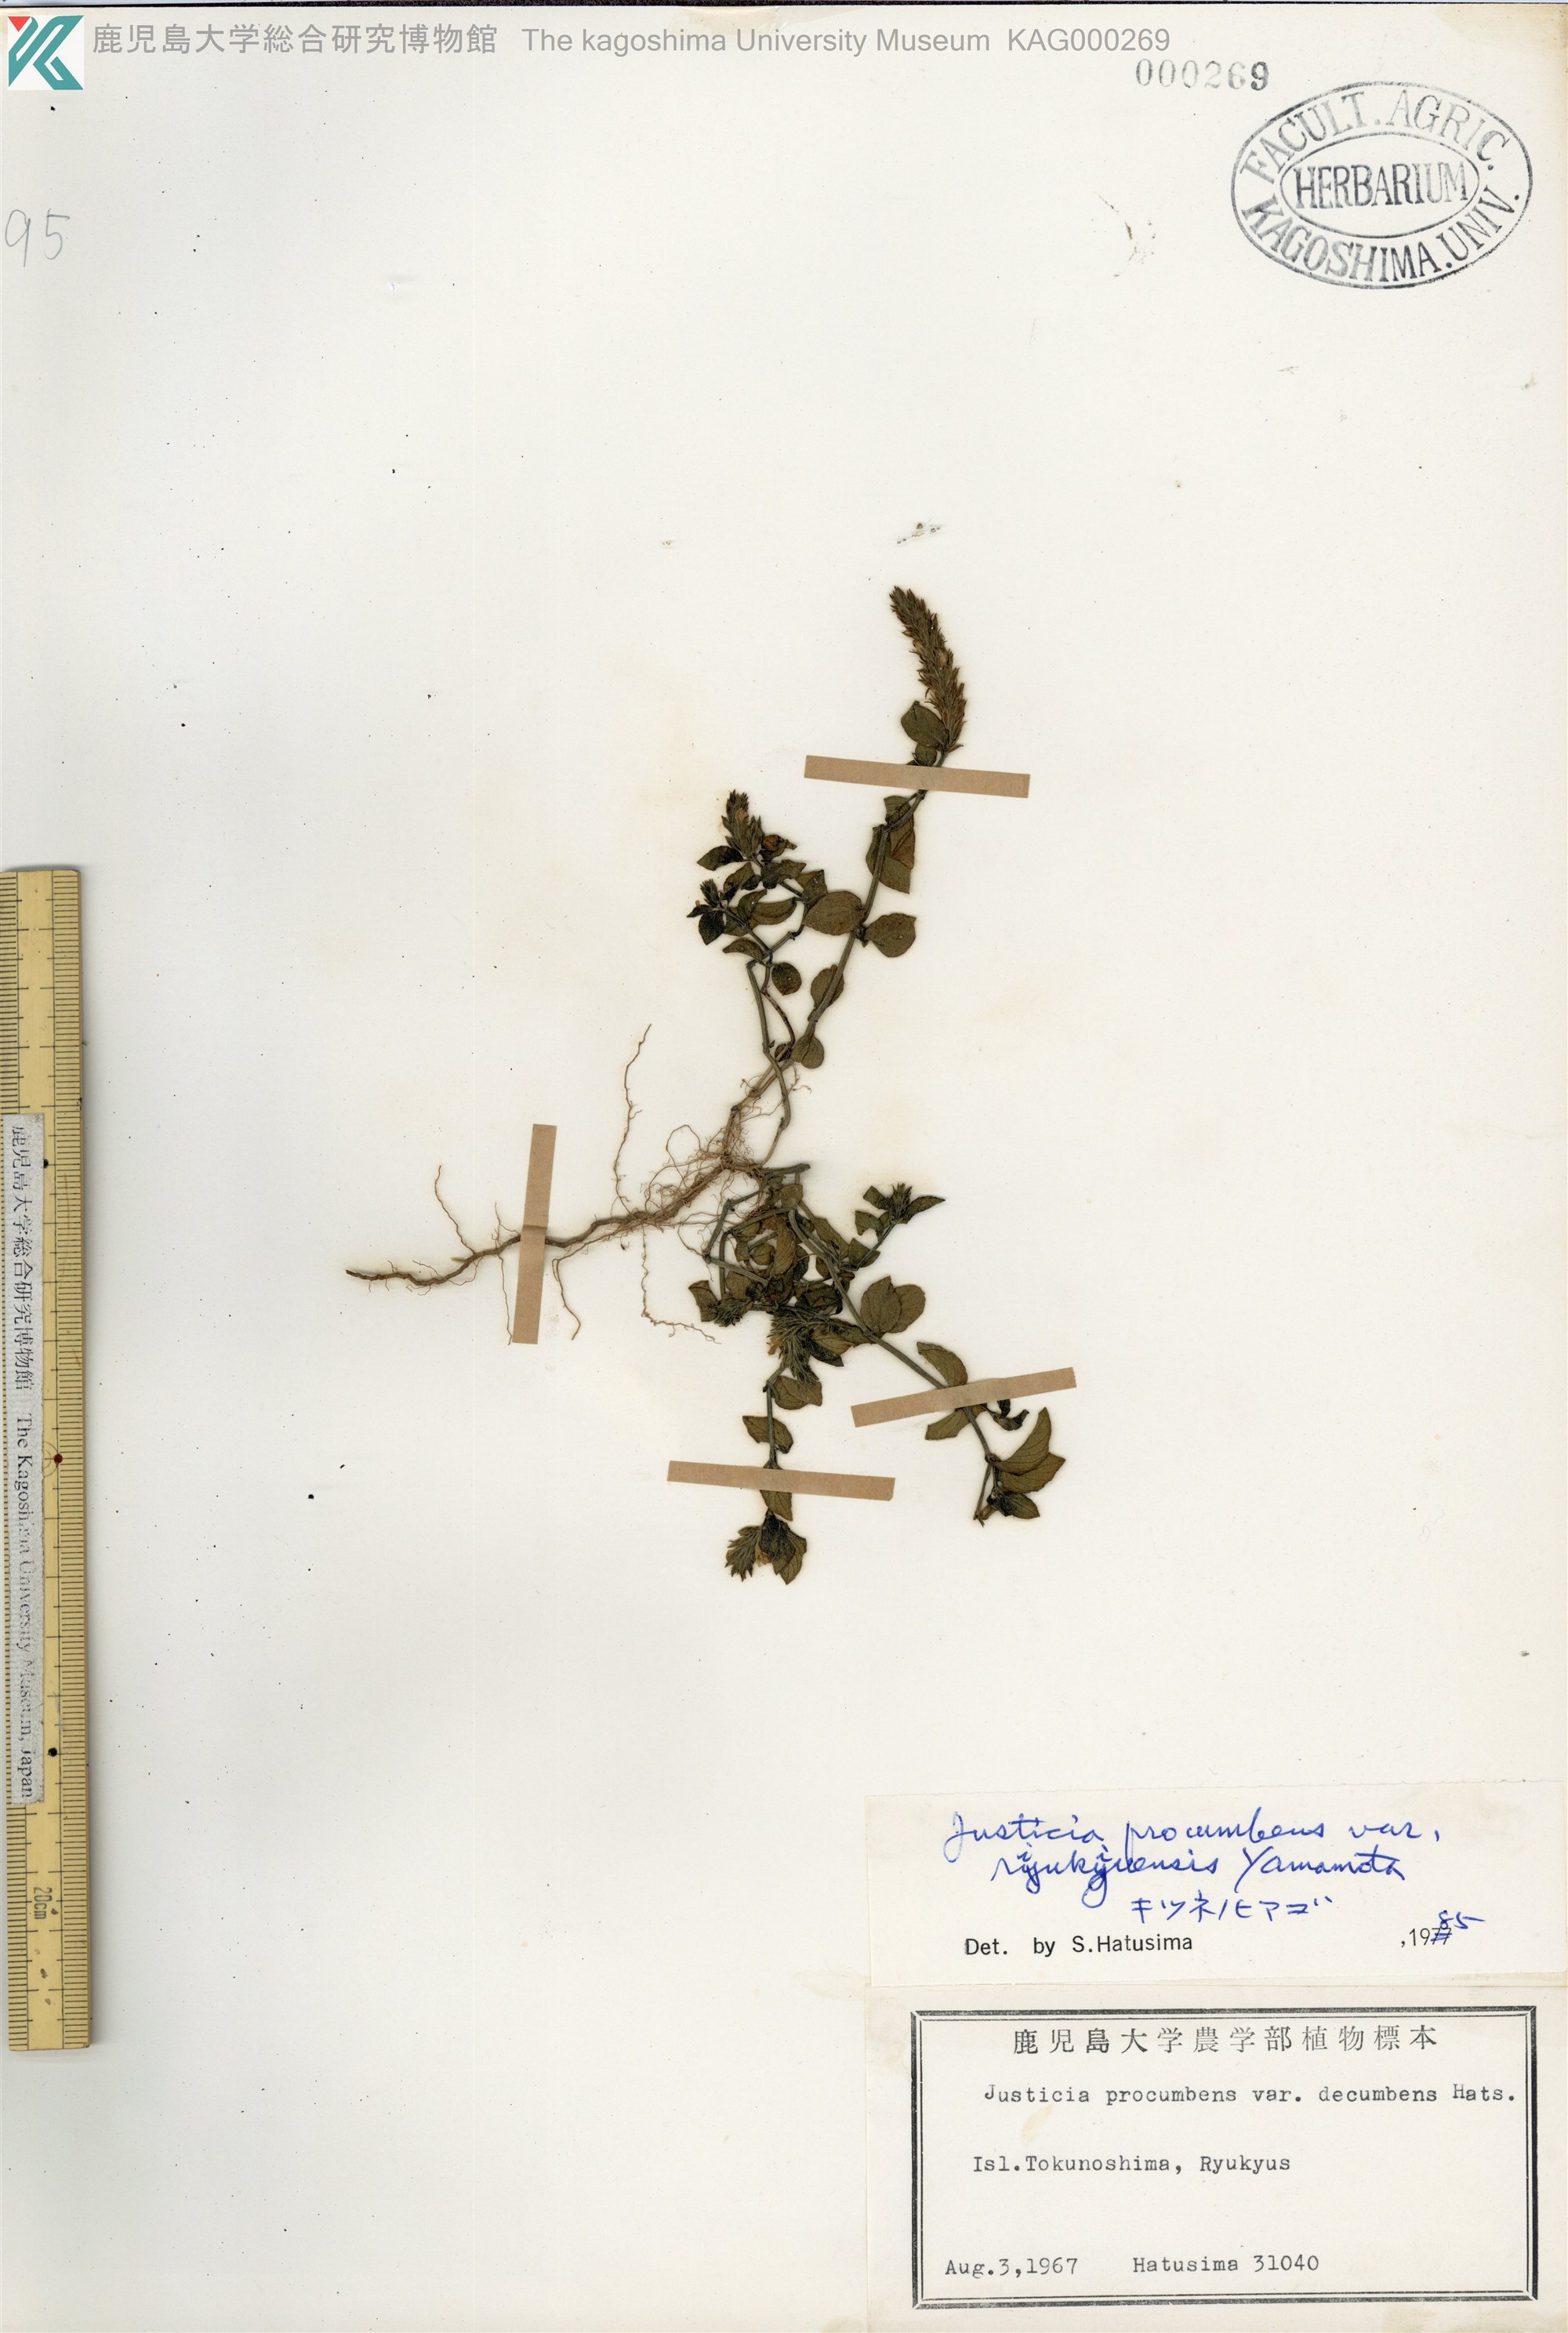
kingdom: Plantae
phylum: Tracheophyta
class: Magnoliopsida
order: Lamiales
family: Acanthaceae
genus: Rostellularia
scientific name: Rostellularia procumbens
